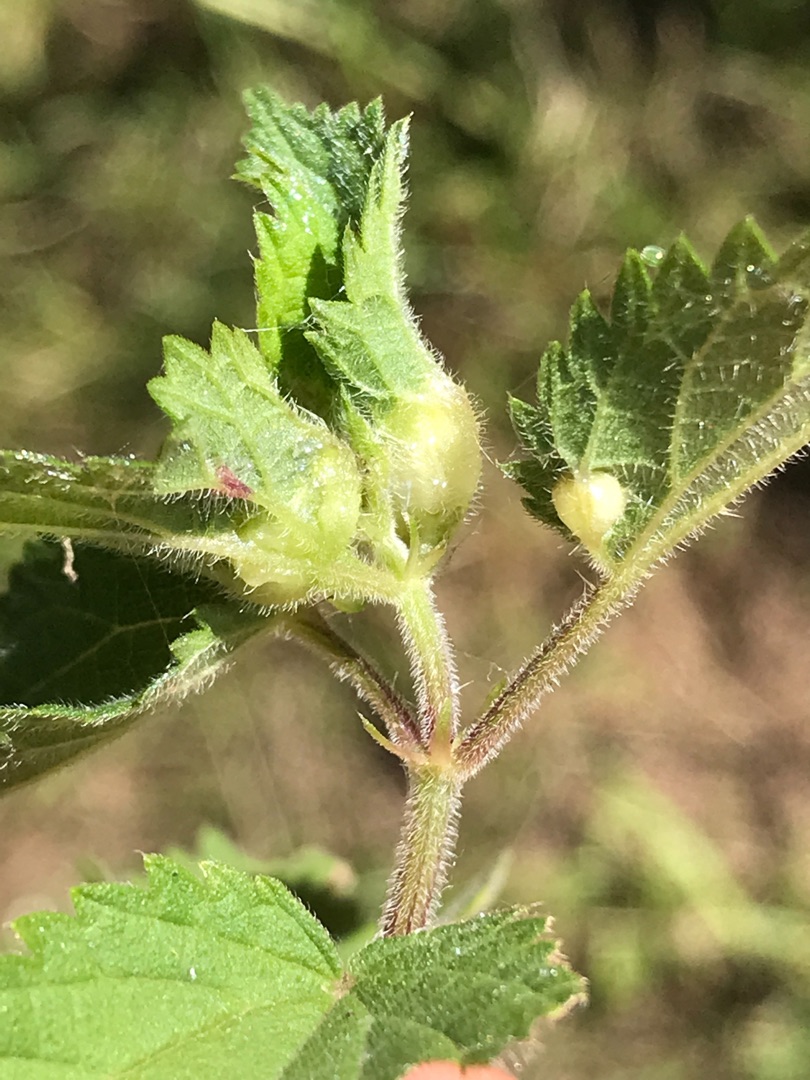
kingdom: Animalia
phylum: Arthropoda
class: Insecta
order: Diptera
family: Cecidomyiidae
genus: Dasineura
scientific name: Dasineura urticae
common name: Nældepunggalmyg
